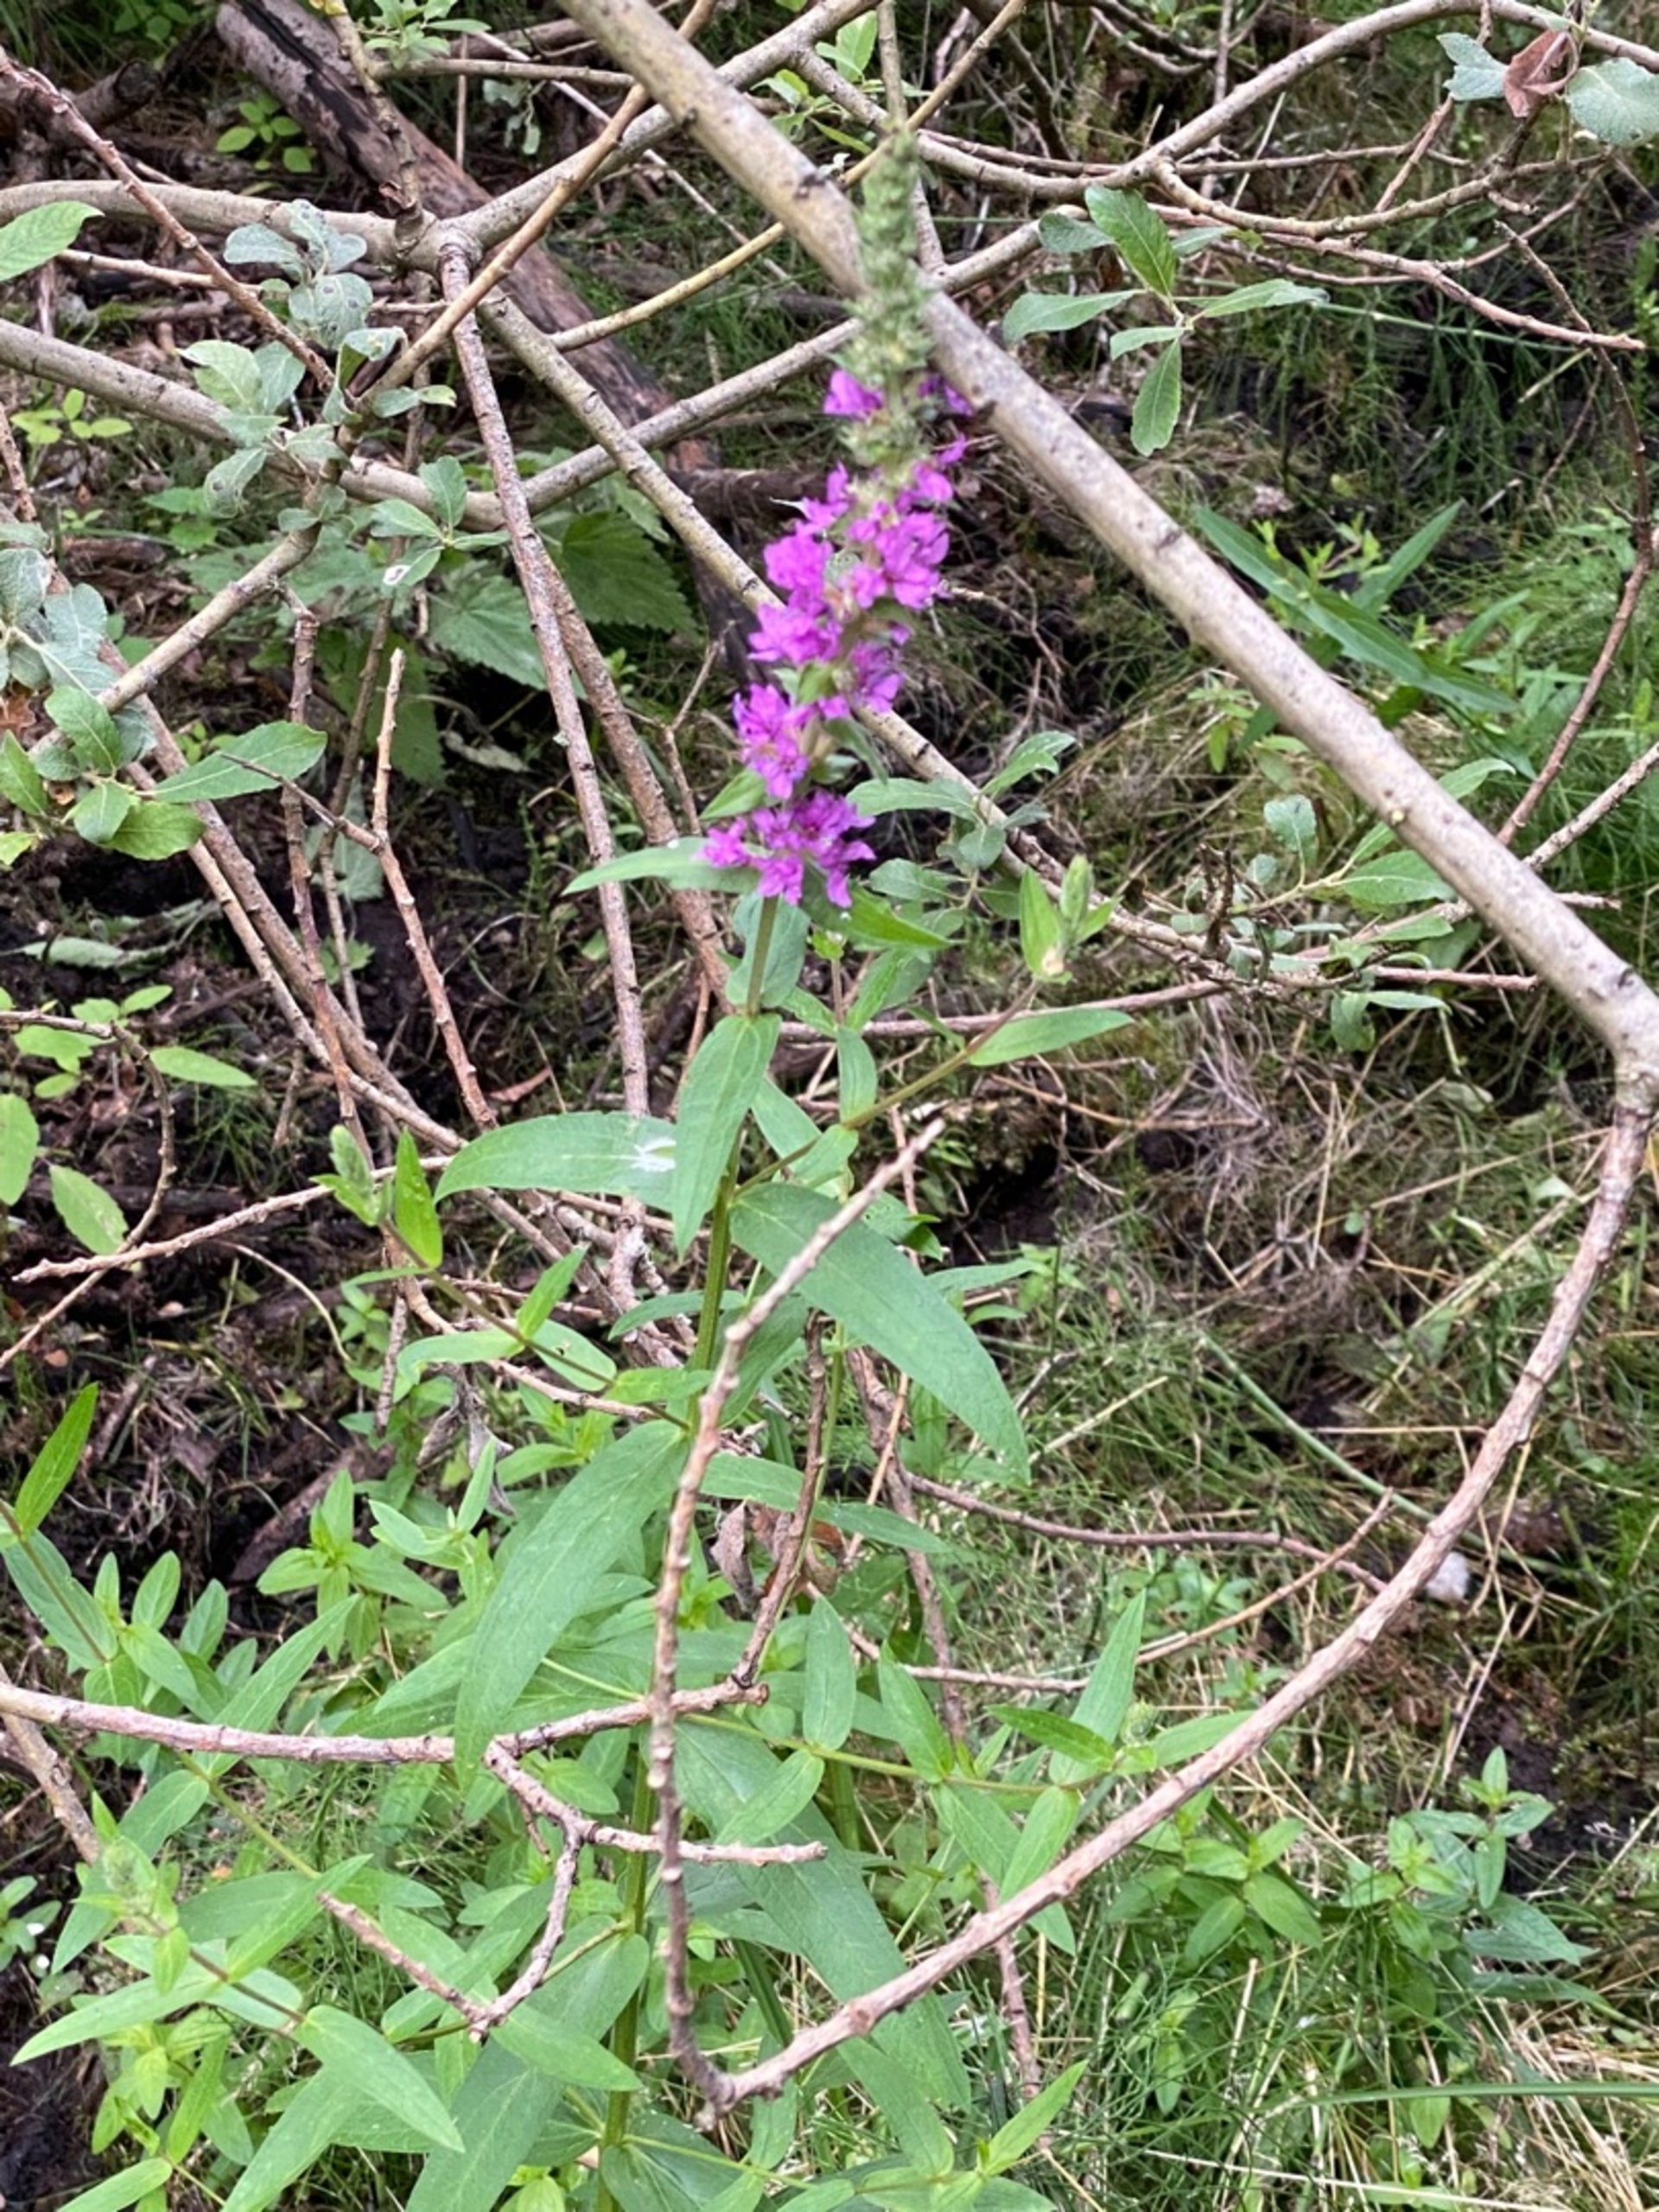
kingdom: Plantae
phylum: Tracheophyta
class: Magnoliopsida
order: Myrtales
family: Lythraceae
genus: Lythrum
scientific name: Lythrum salicaria
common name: Kattehale
